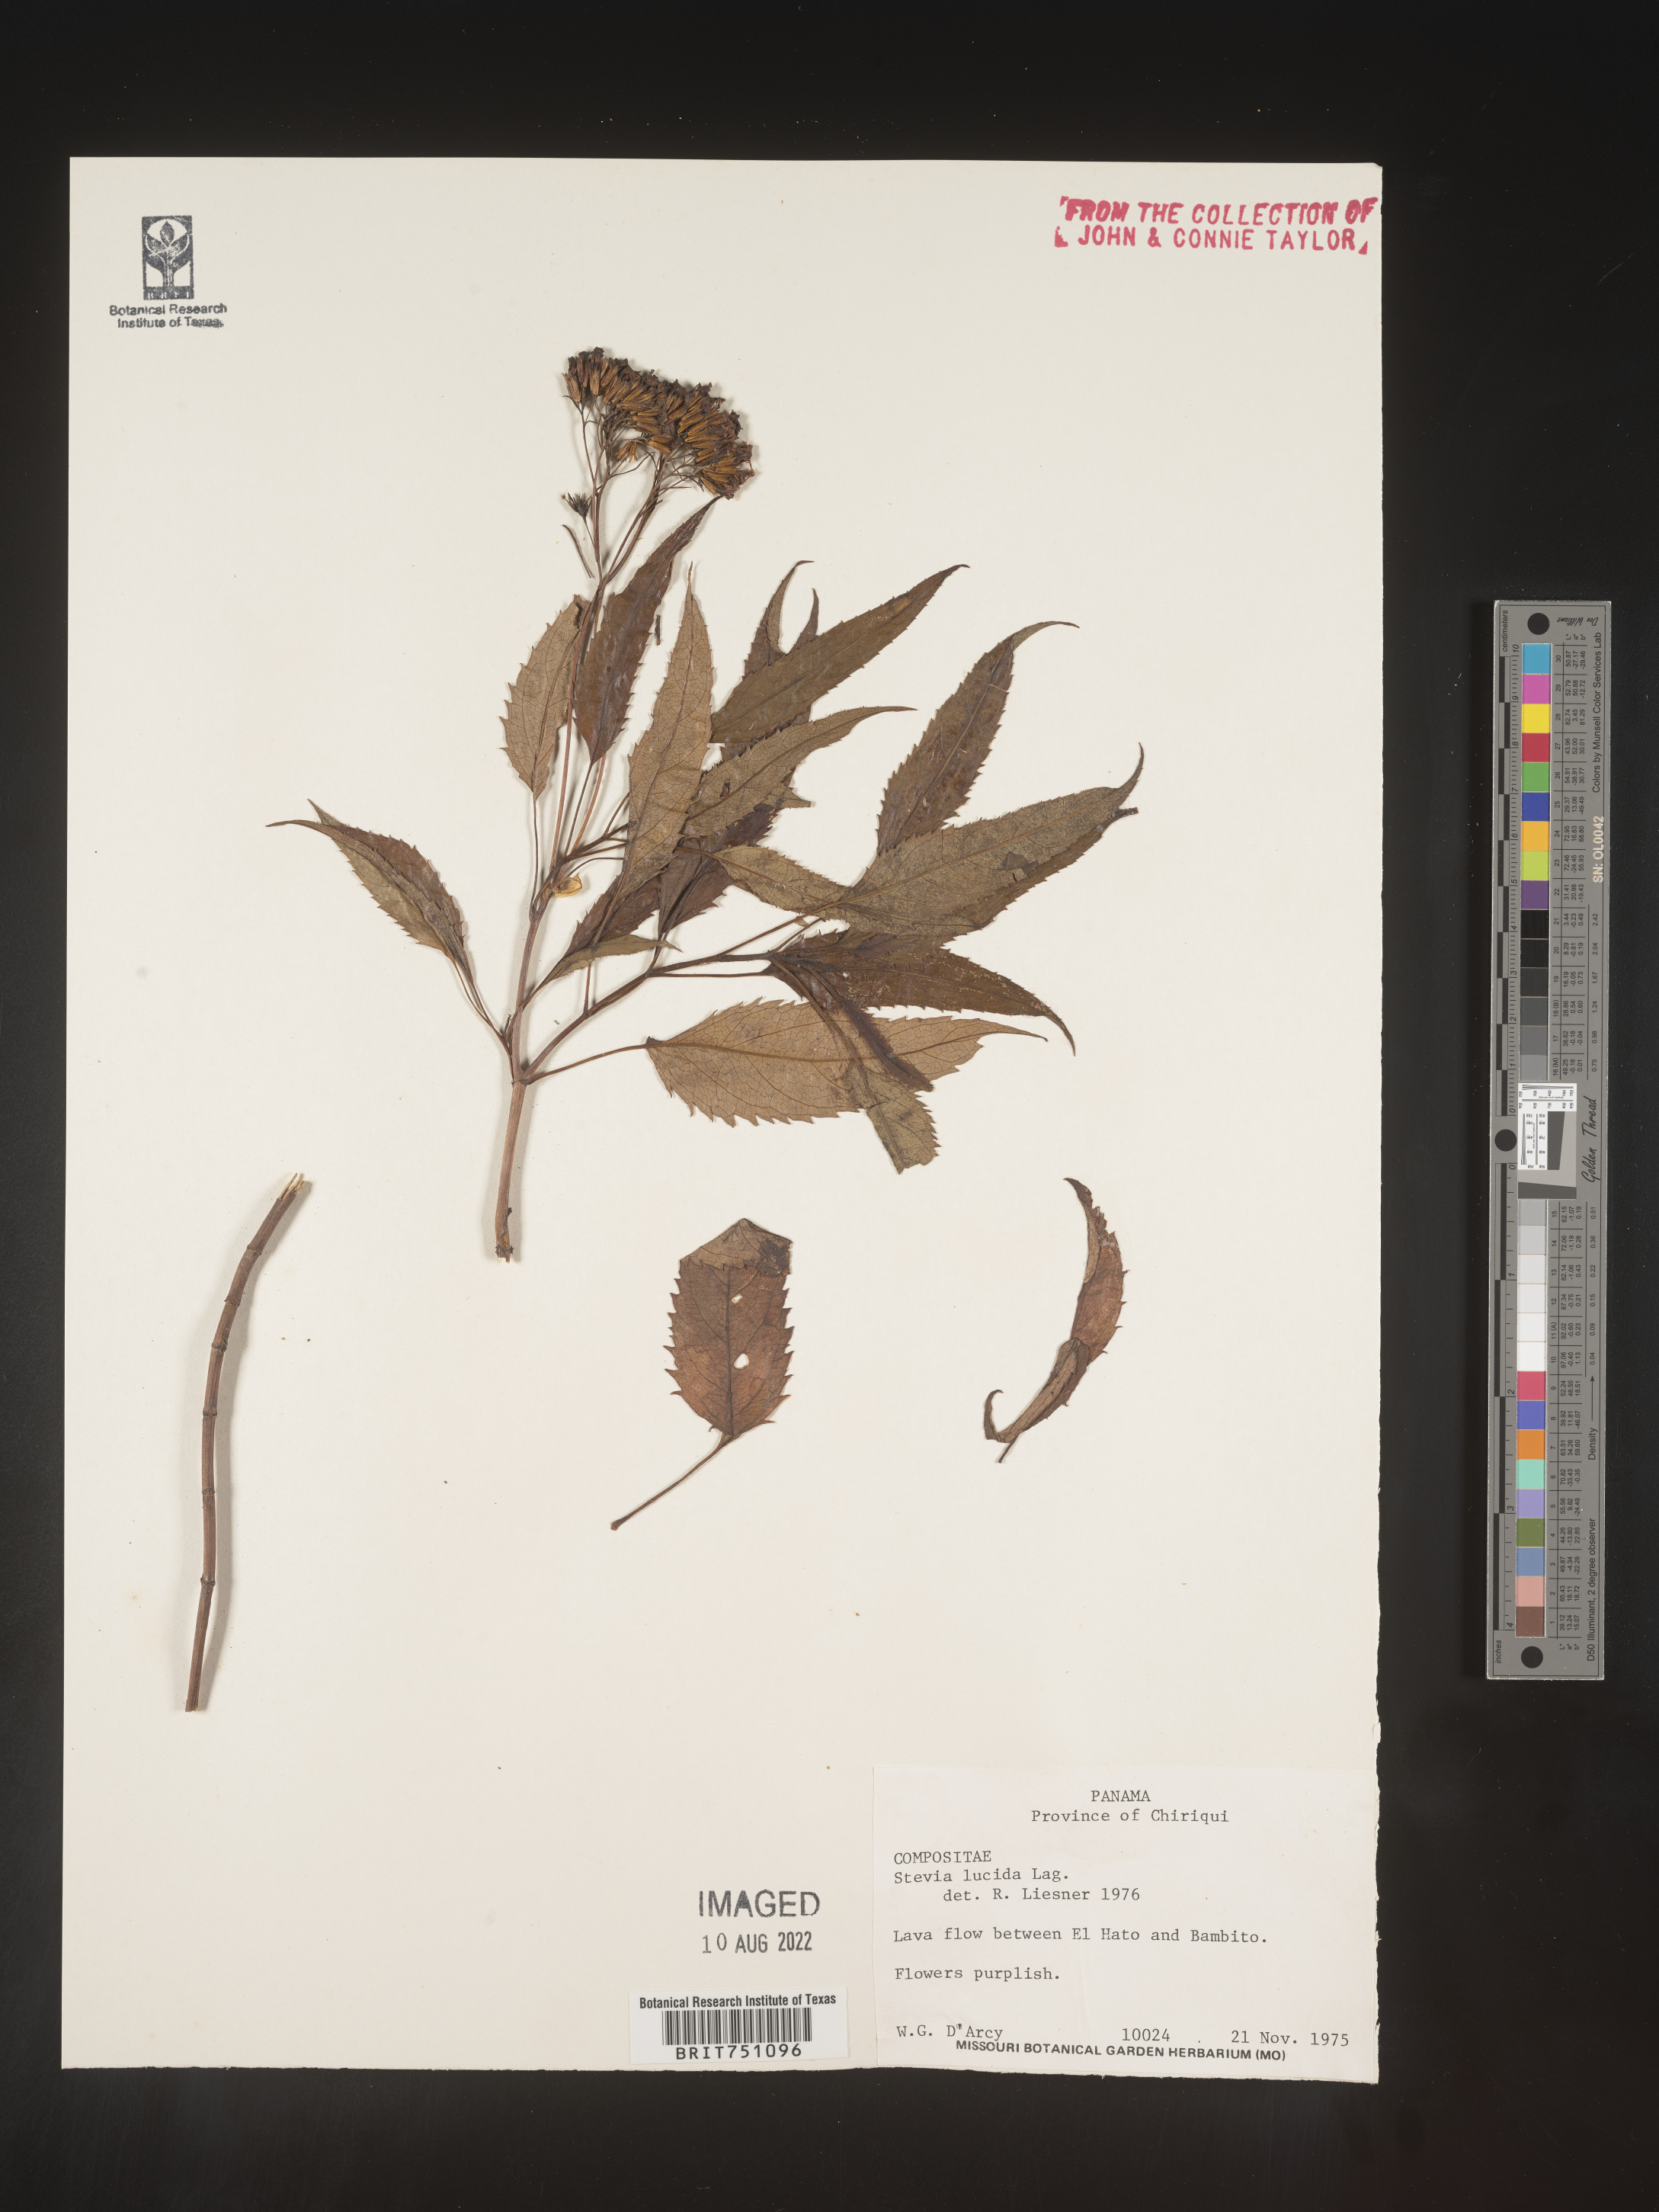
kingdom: Plantae
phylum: Tracheophyta
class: Magnoliopsida
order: Asterales
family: Asteraceae
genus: Stevia
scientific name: Stevia
